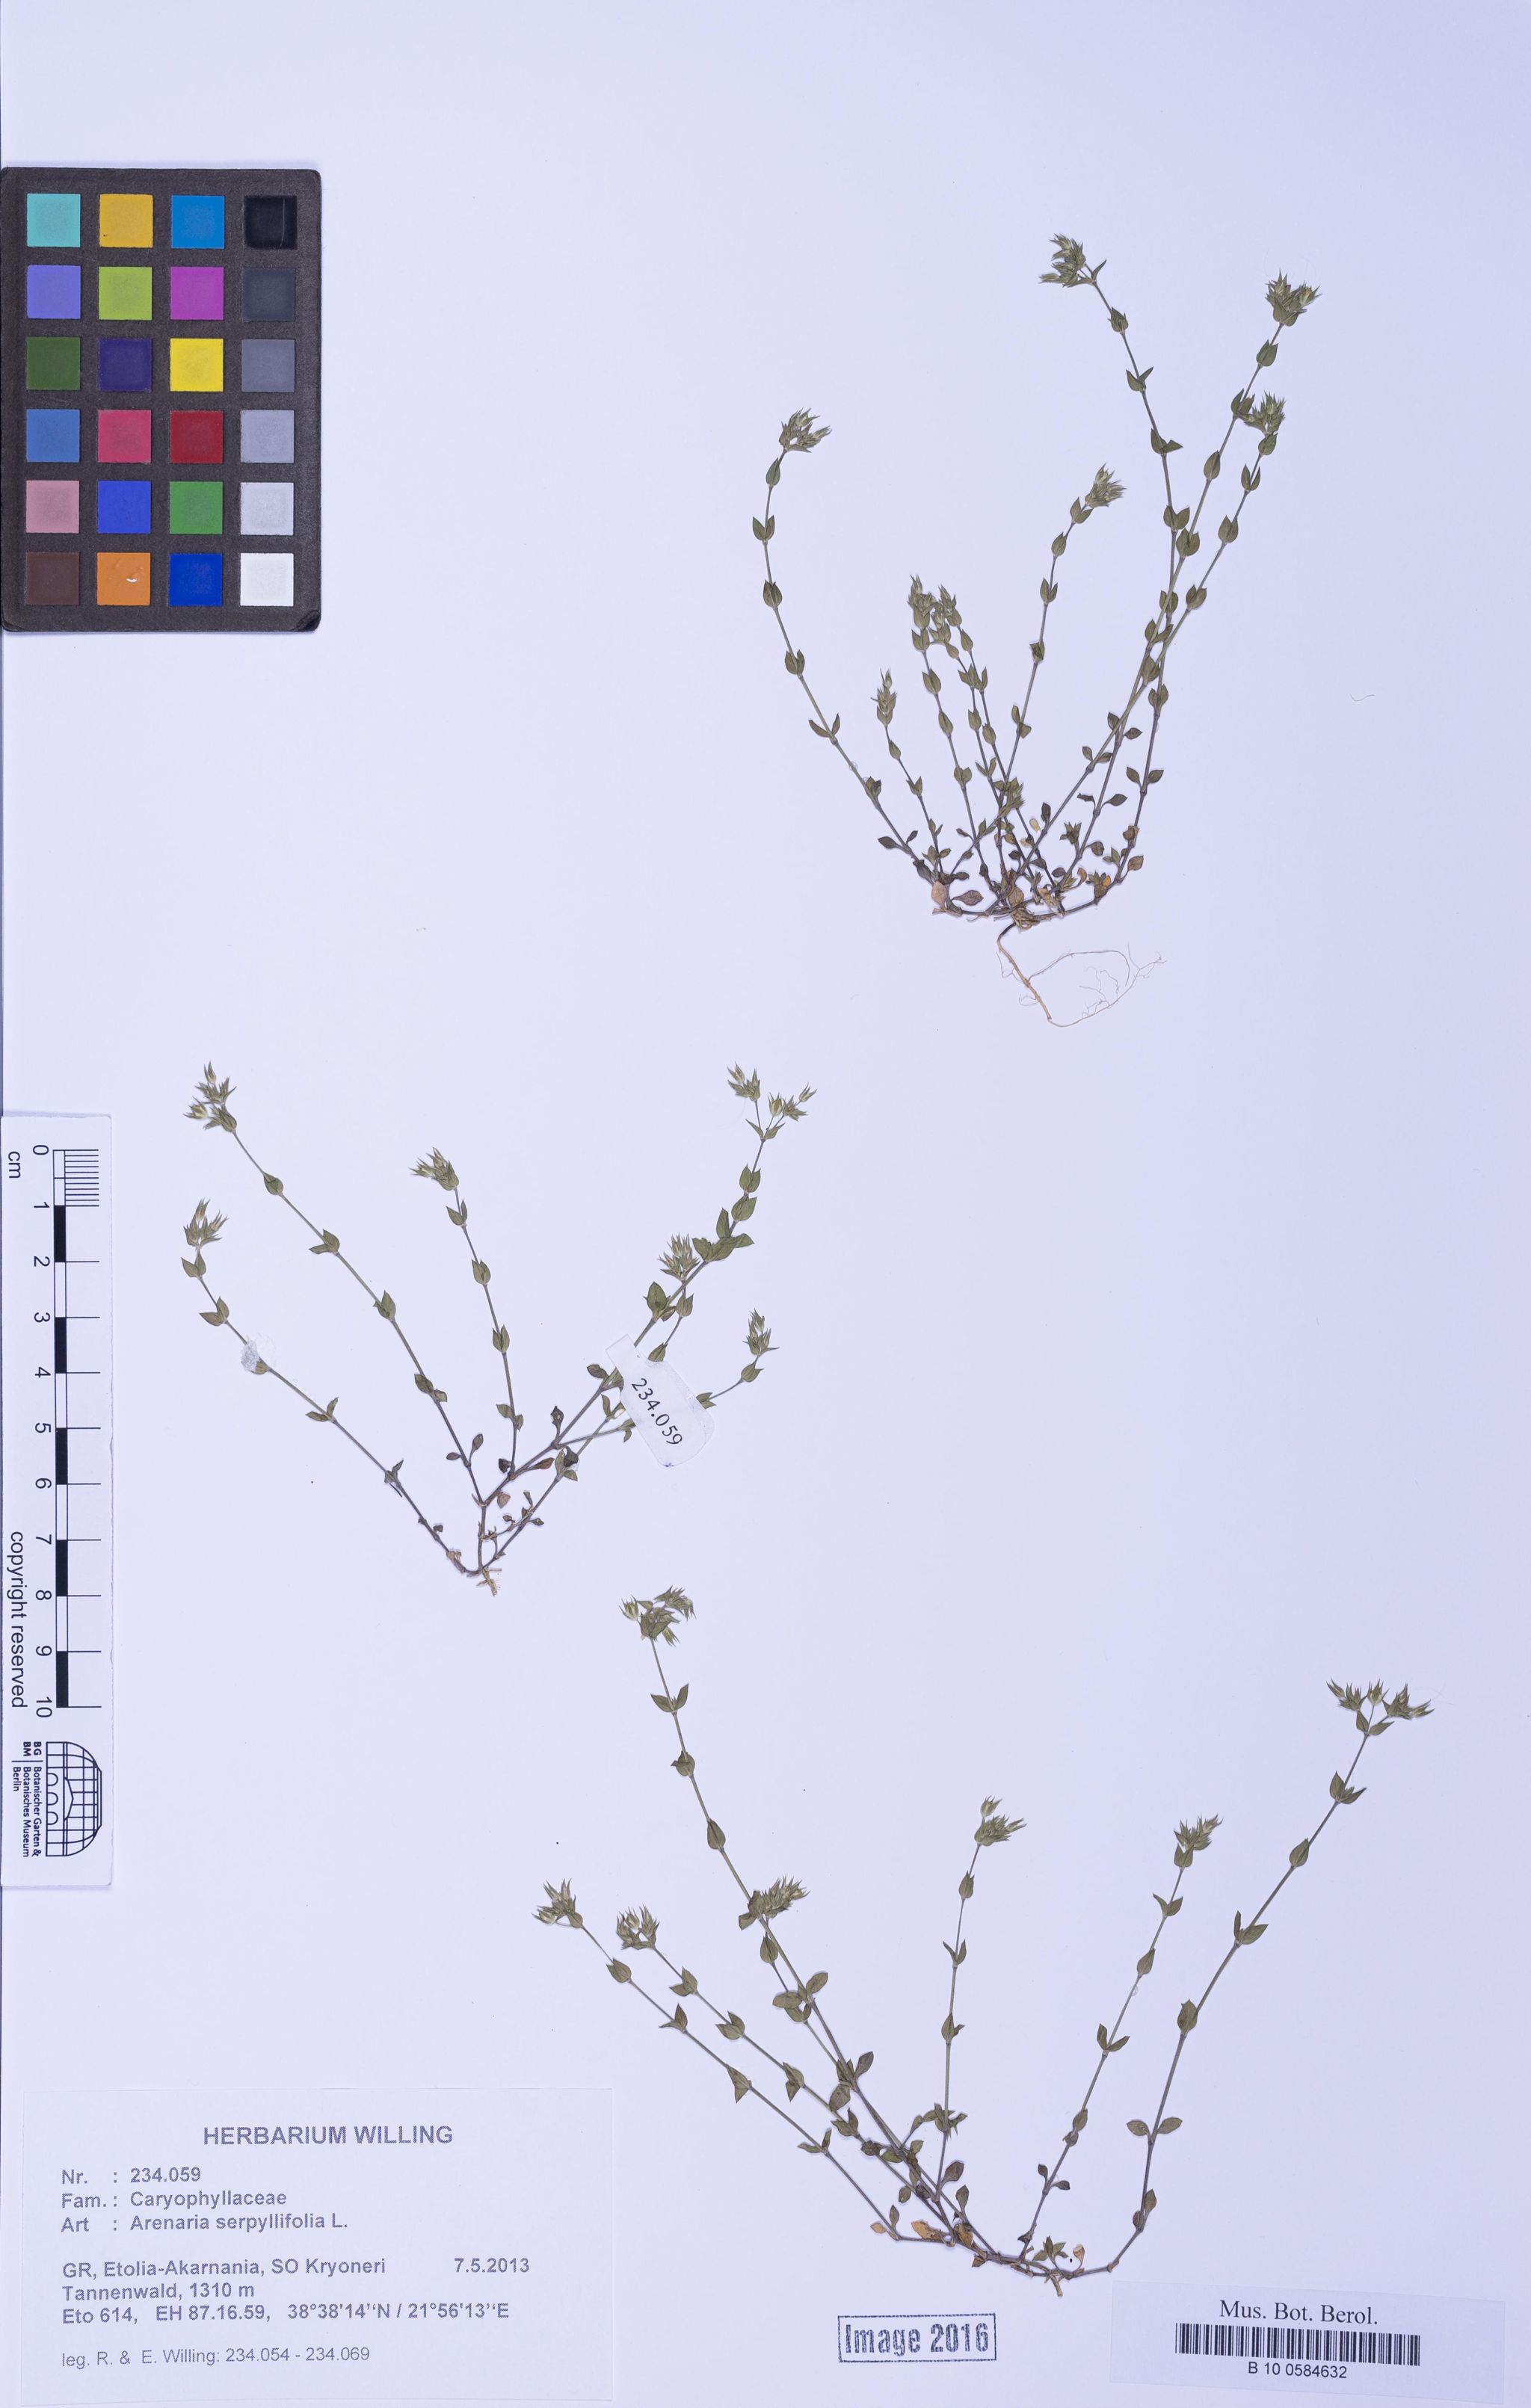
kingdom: Plantae
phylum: Tracheophyta
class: Magnoliopsida
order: Caryophyllales
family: Caryophyllaceae
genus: Arenaria
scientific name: Arenaria serpyllifolia
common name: Thyme-leaved sandwort
